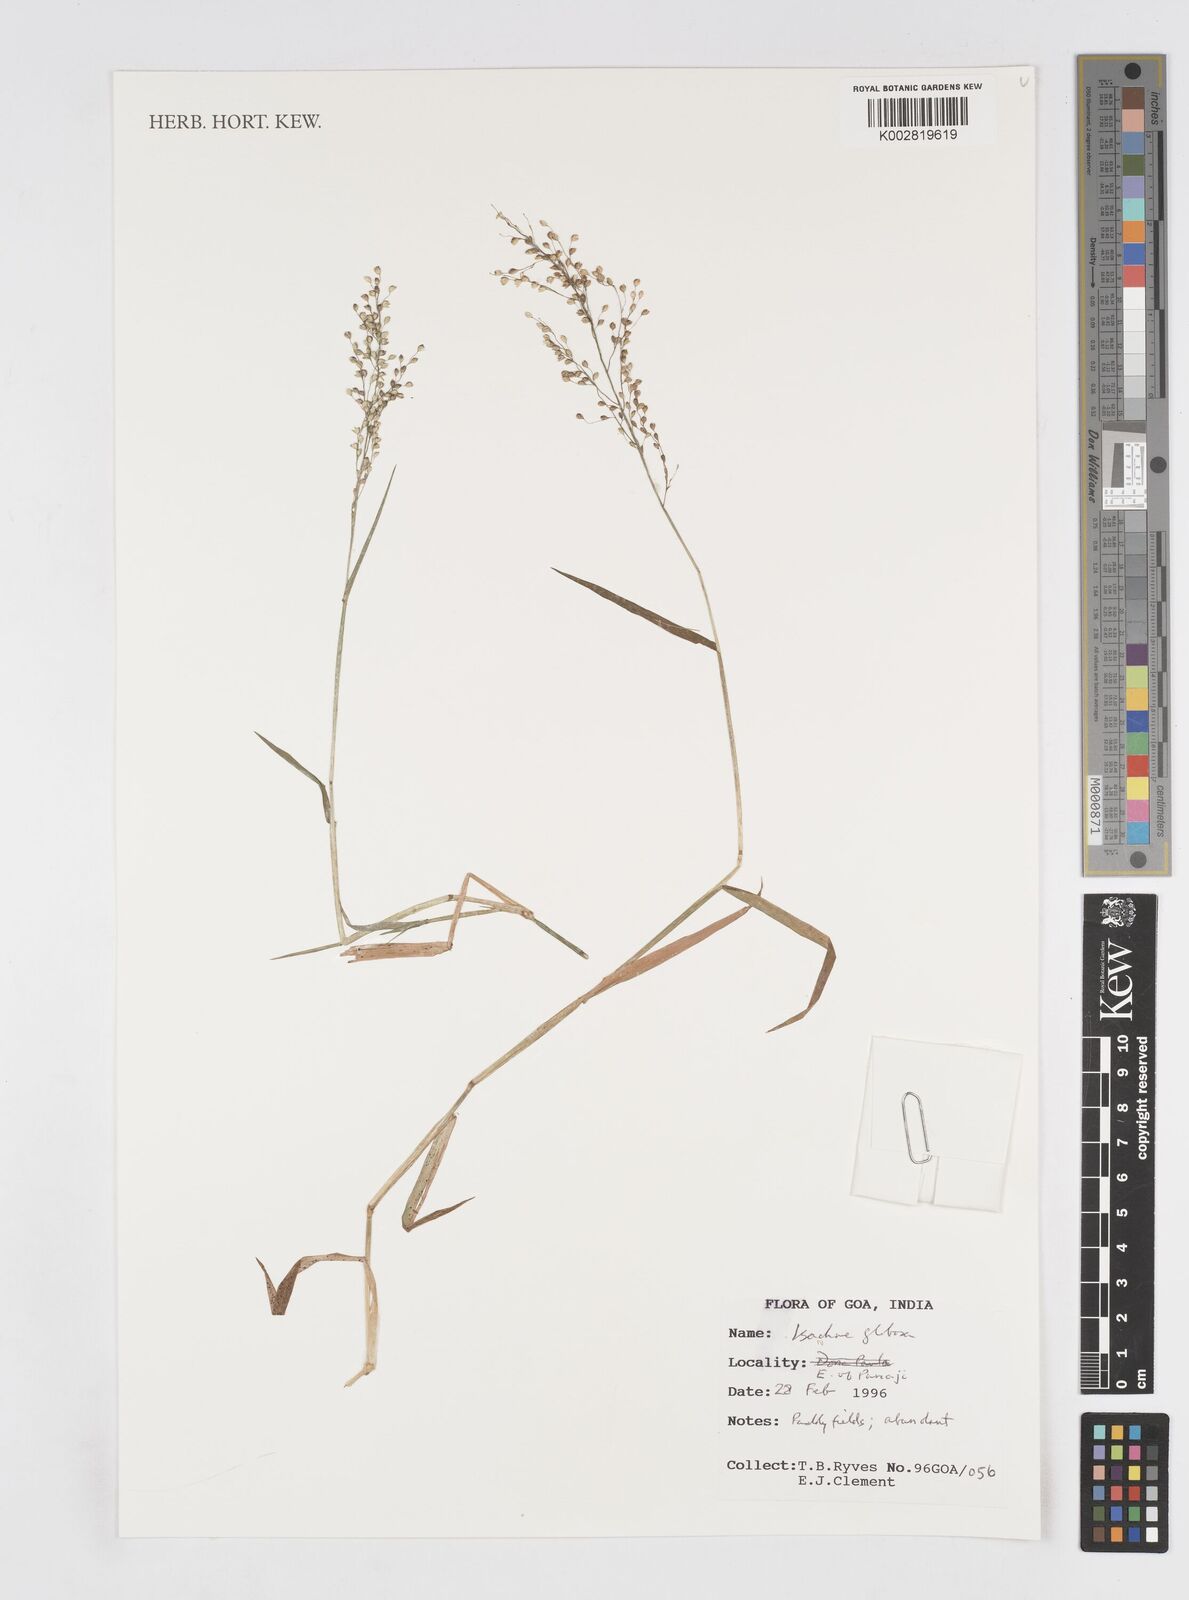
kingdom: Plantae
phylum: Tracheophyta
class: Liliopsida
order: Poales
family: Poaceae
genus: Isachne
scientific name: Isachne globosa
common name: Swamp millet
